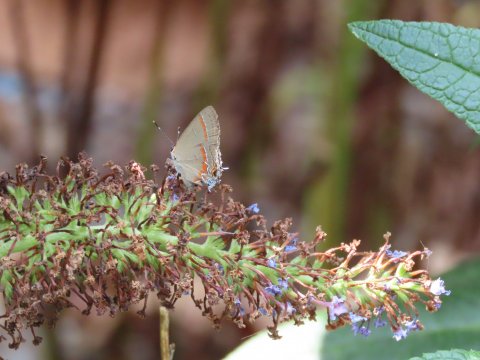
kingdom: Animalia
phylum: Arthropoda
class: Insecta
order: Lepidoptera
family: Lycaenidae
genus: Calycopis
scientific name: Calycopis cecrops
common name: Red-banded Hairstreak
